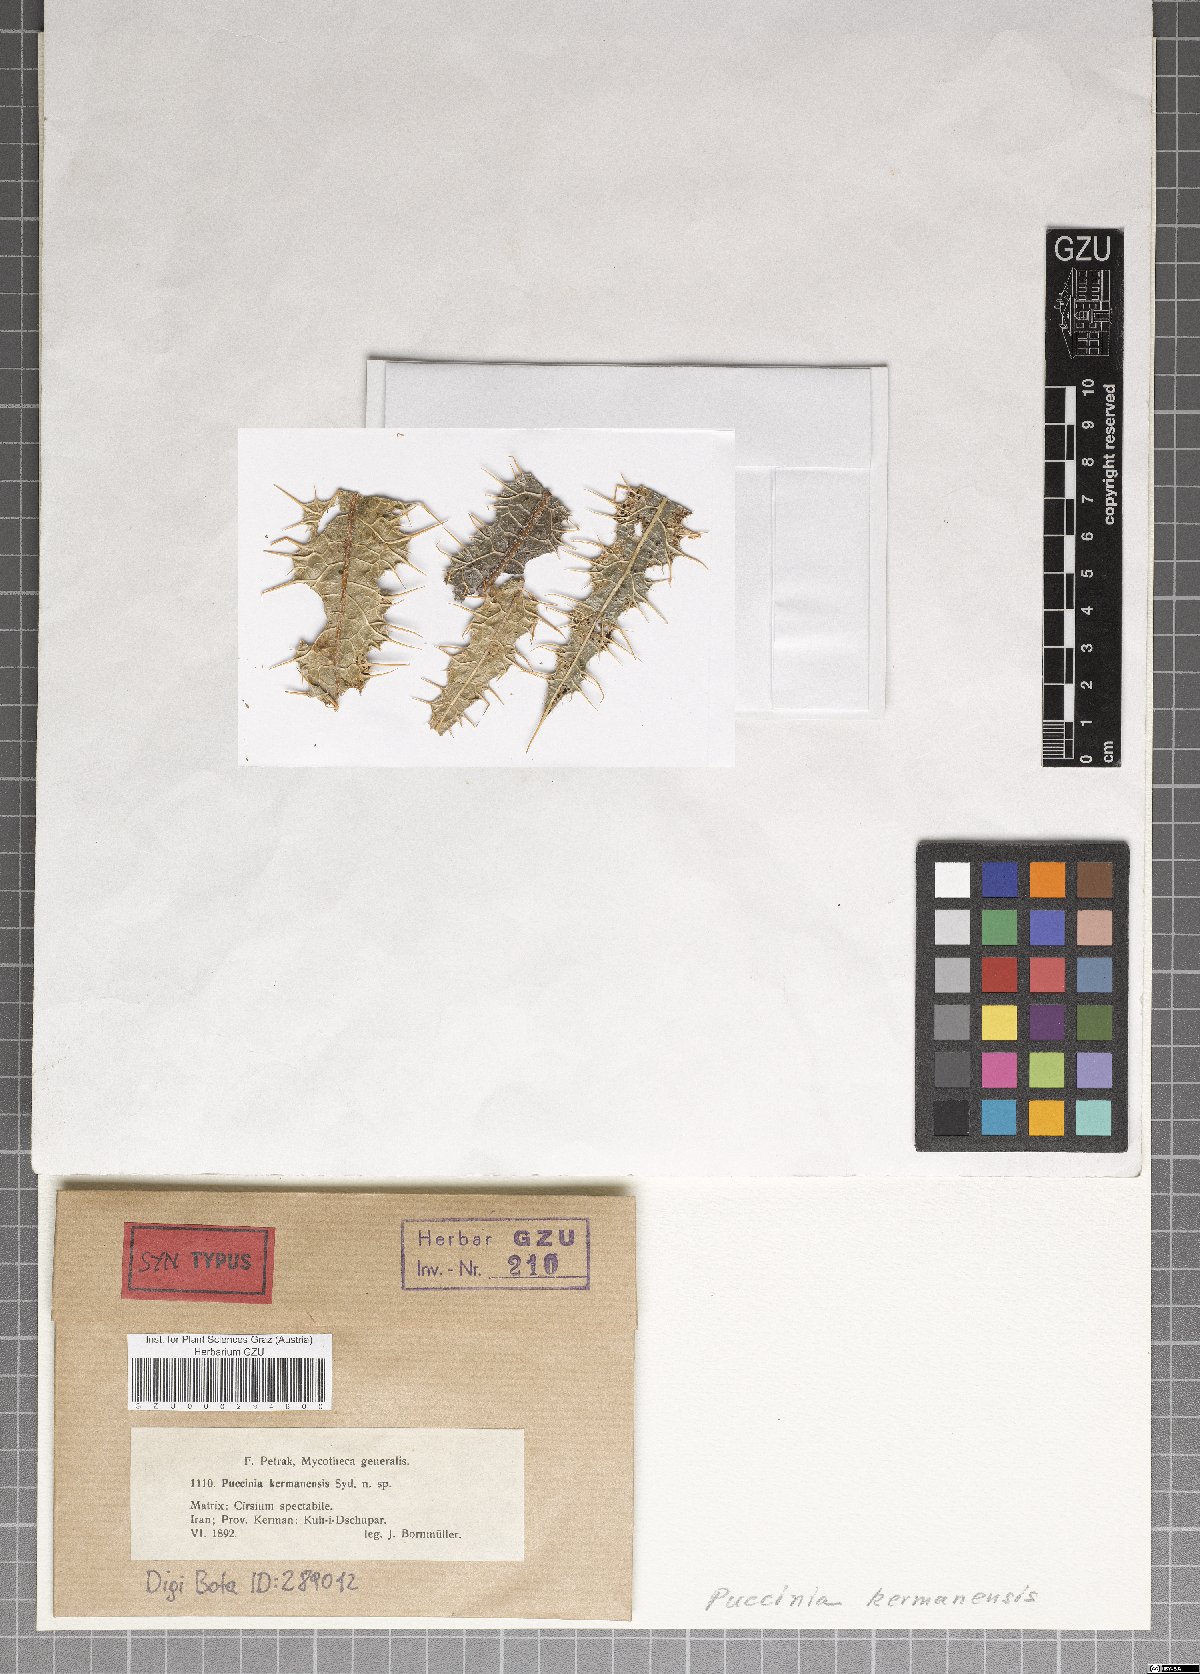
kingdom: Fungi
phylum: Basidiomycota
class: Pucciniomycetes
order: Pucciniales
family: Pucciniaceae
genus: Puccinia
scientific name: Puccinia kermanensis
